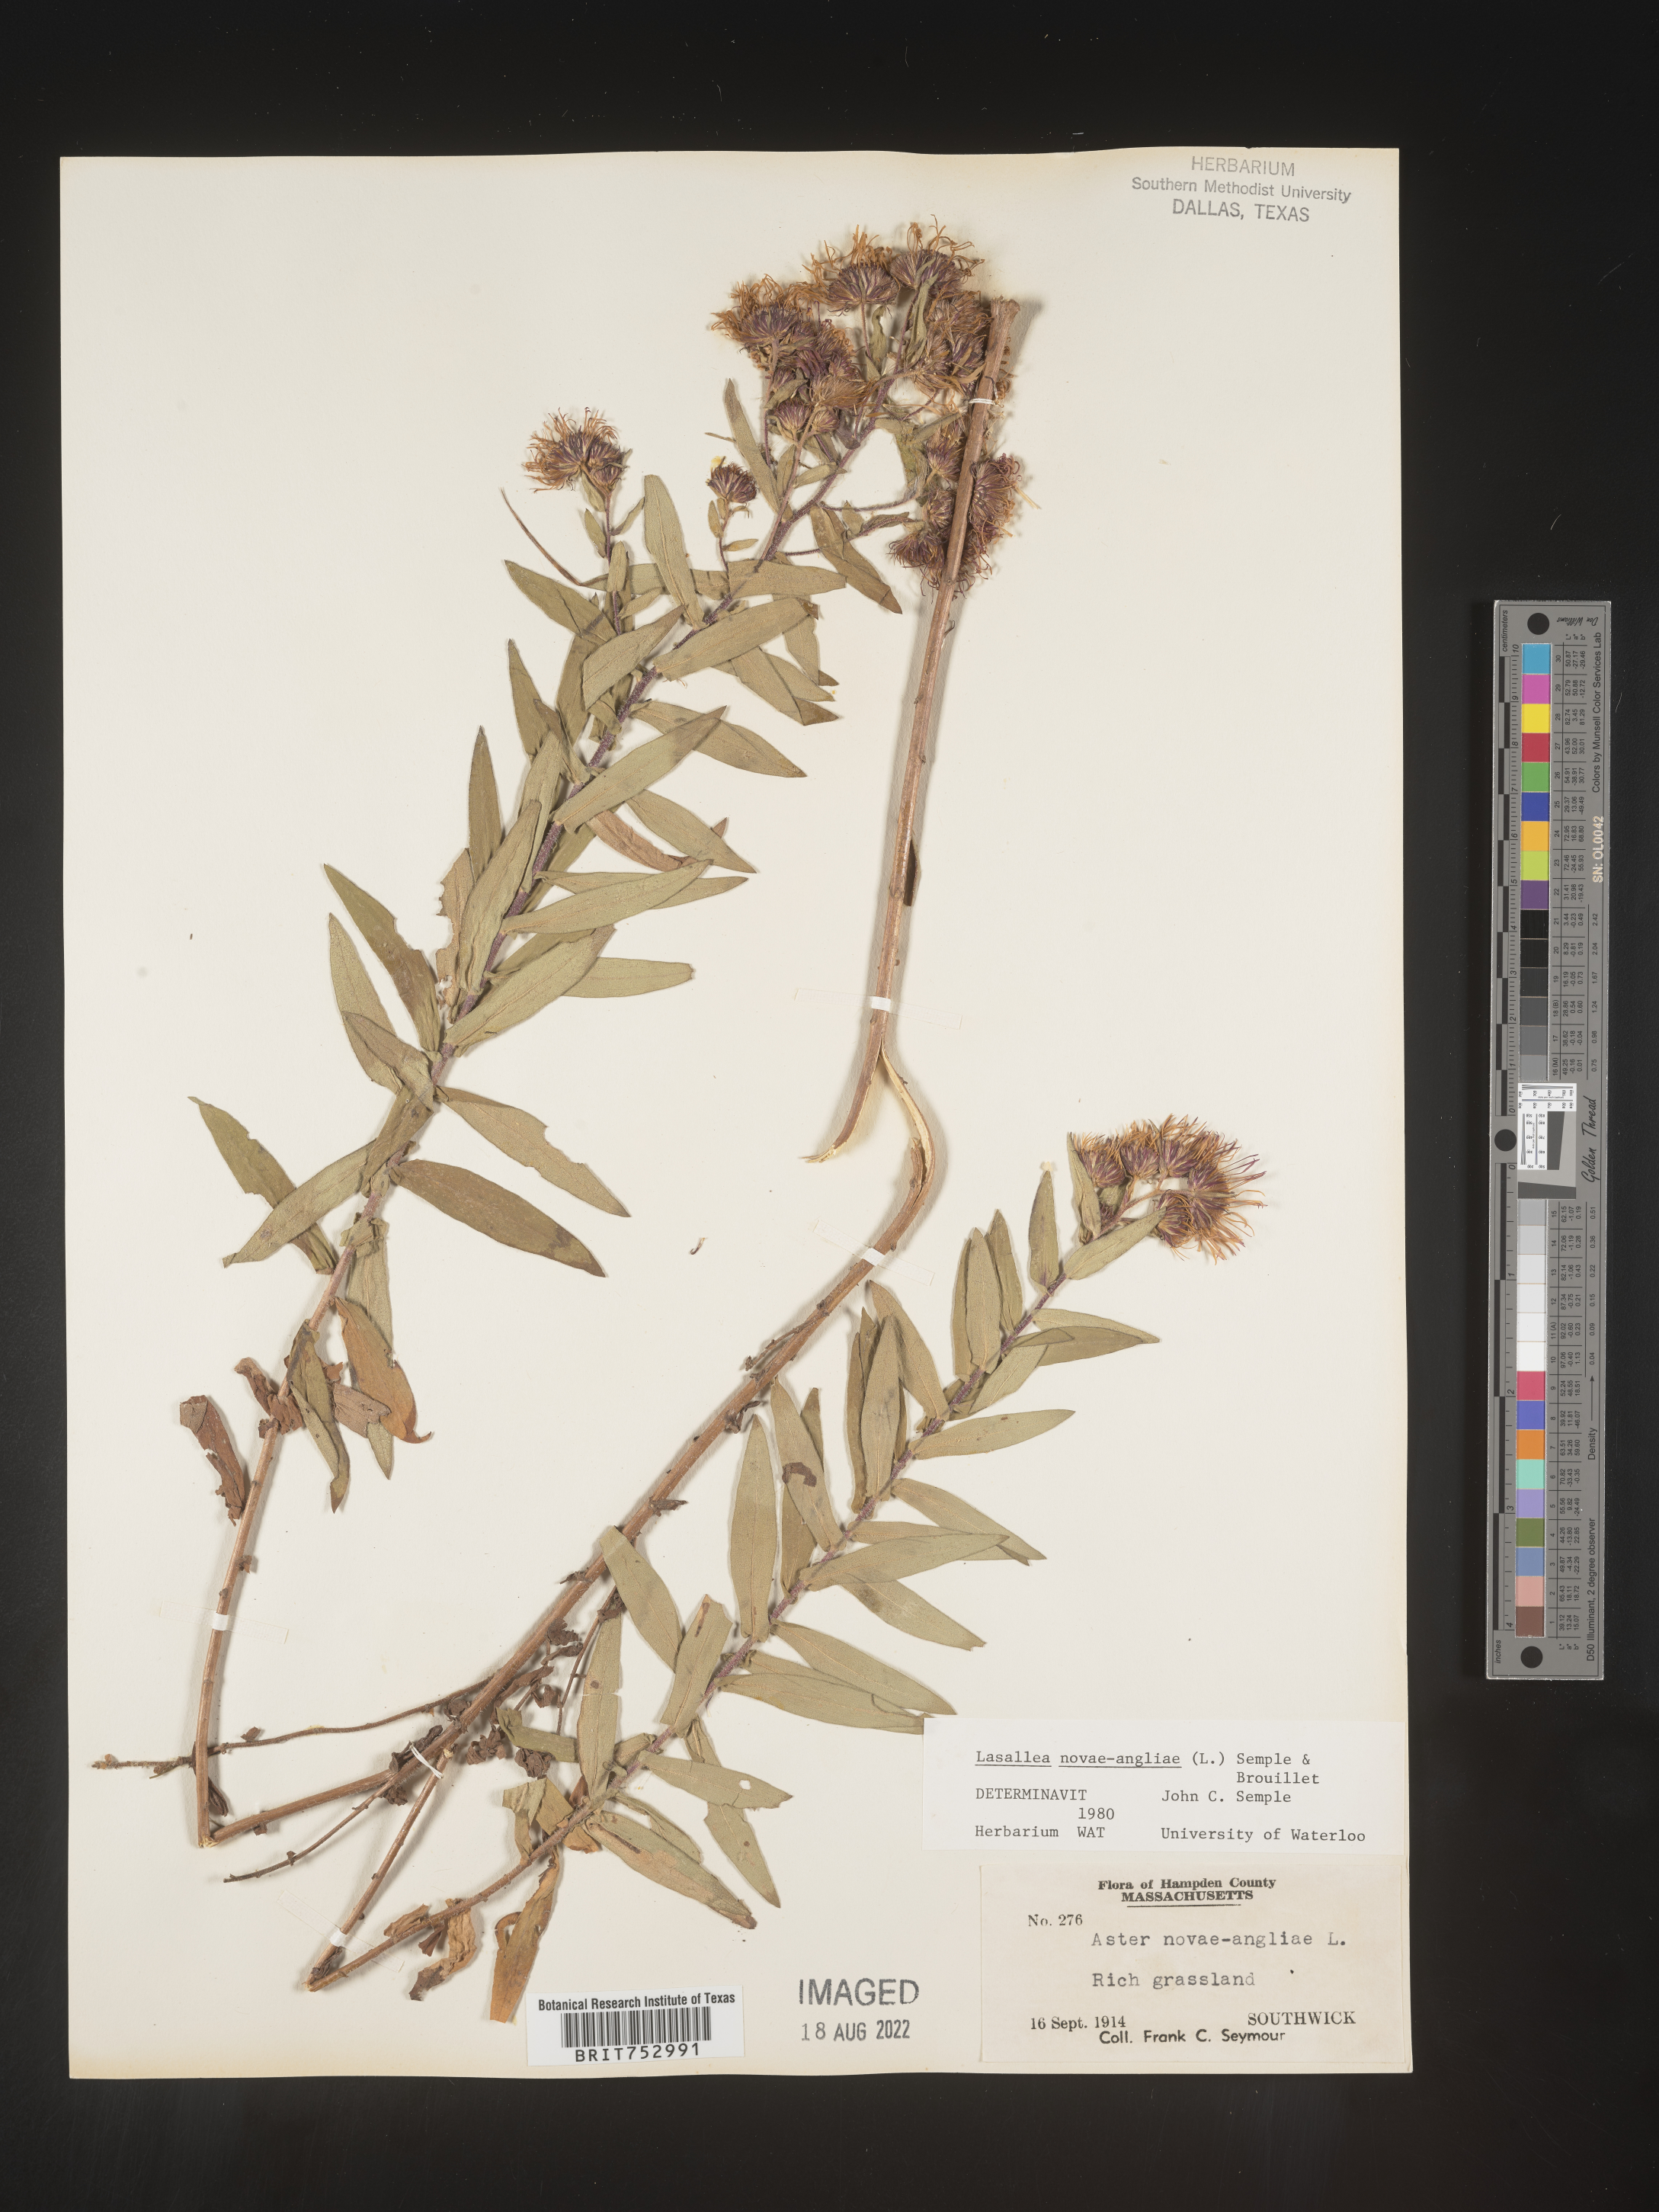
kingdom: Plantae
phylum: Tracheophyta
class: Magnoliopsida
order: Asterales
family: Asteraceae
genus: Symphyotrichum
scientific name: Symphyotrichum novae-angliae
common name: Michaelmas daisy
